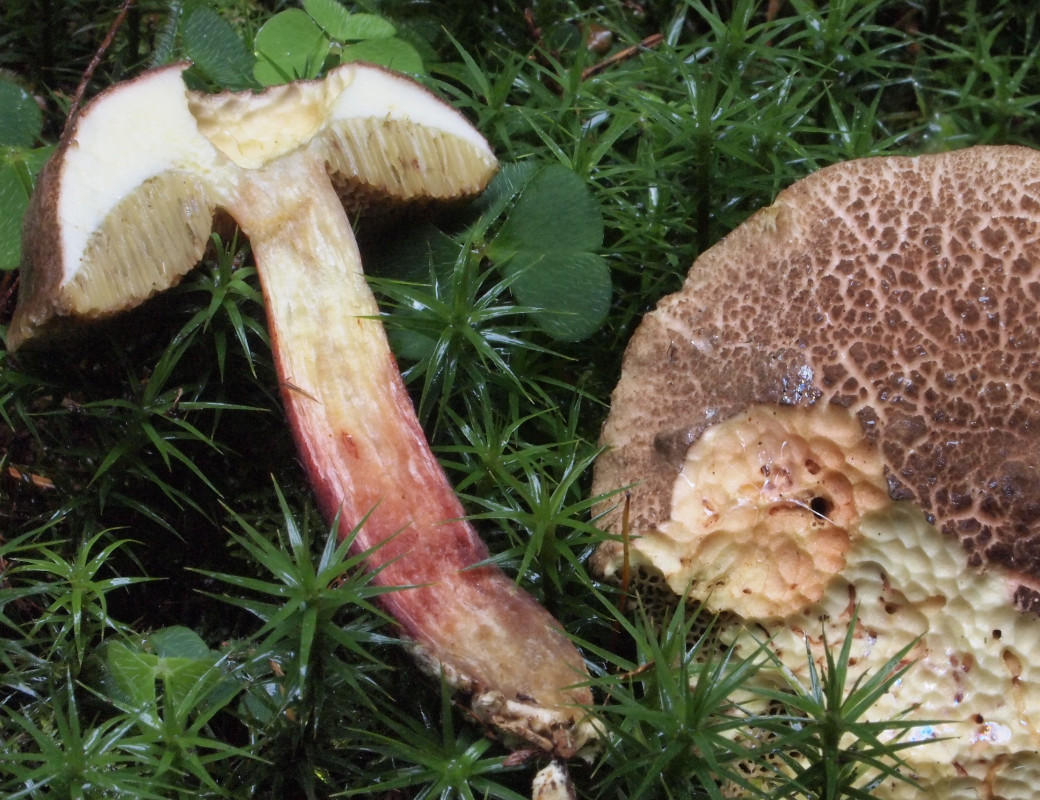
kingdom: Fungi
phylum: Basidiomycota
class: Agaricomycetes
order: Boletales
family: Boletaceae
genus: Xerocomellus
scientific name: Xerocomellus chrysenteron
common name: rødsprukken rørhat
